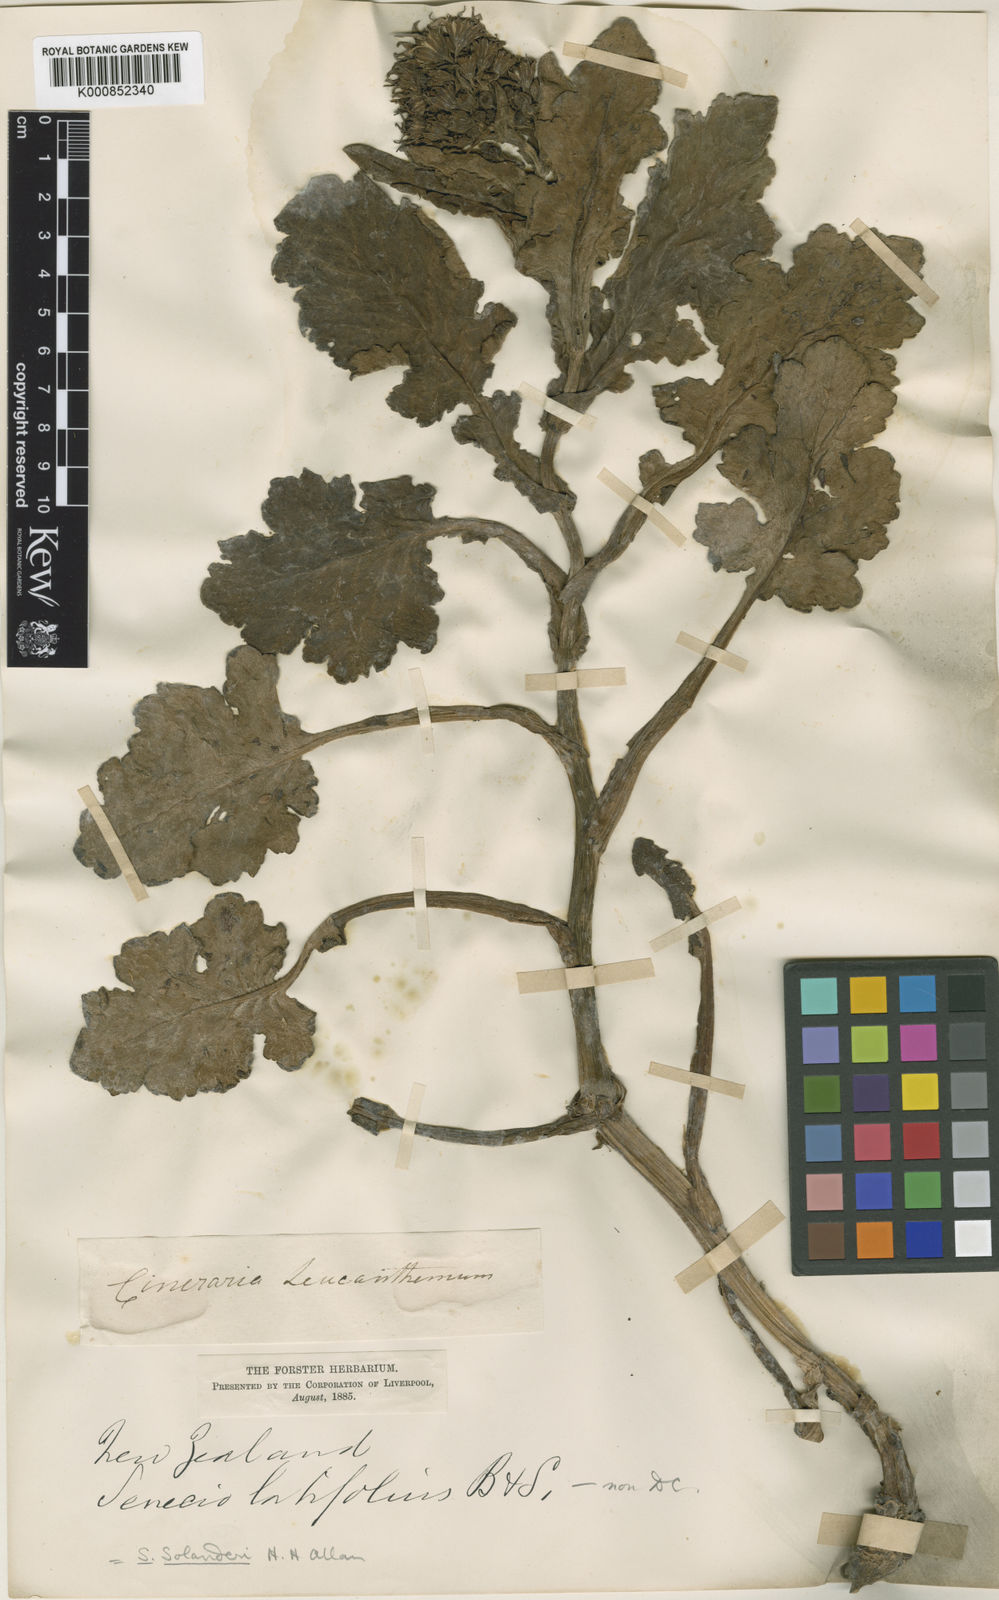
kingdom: Plantae
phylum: Tracheophyta
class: Magnoliopsida
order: Asterales
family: Asteraceae
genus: Senecio
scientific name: Senecio
